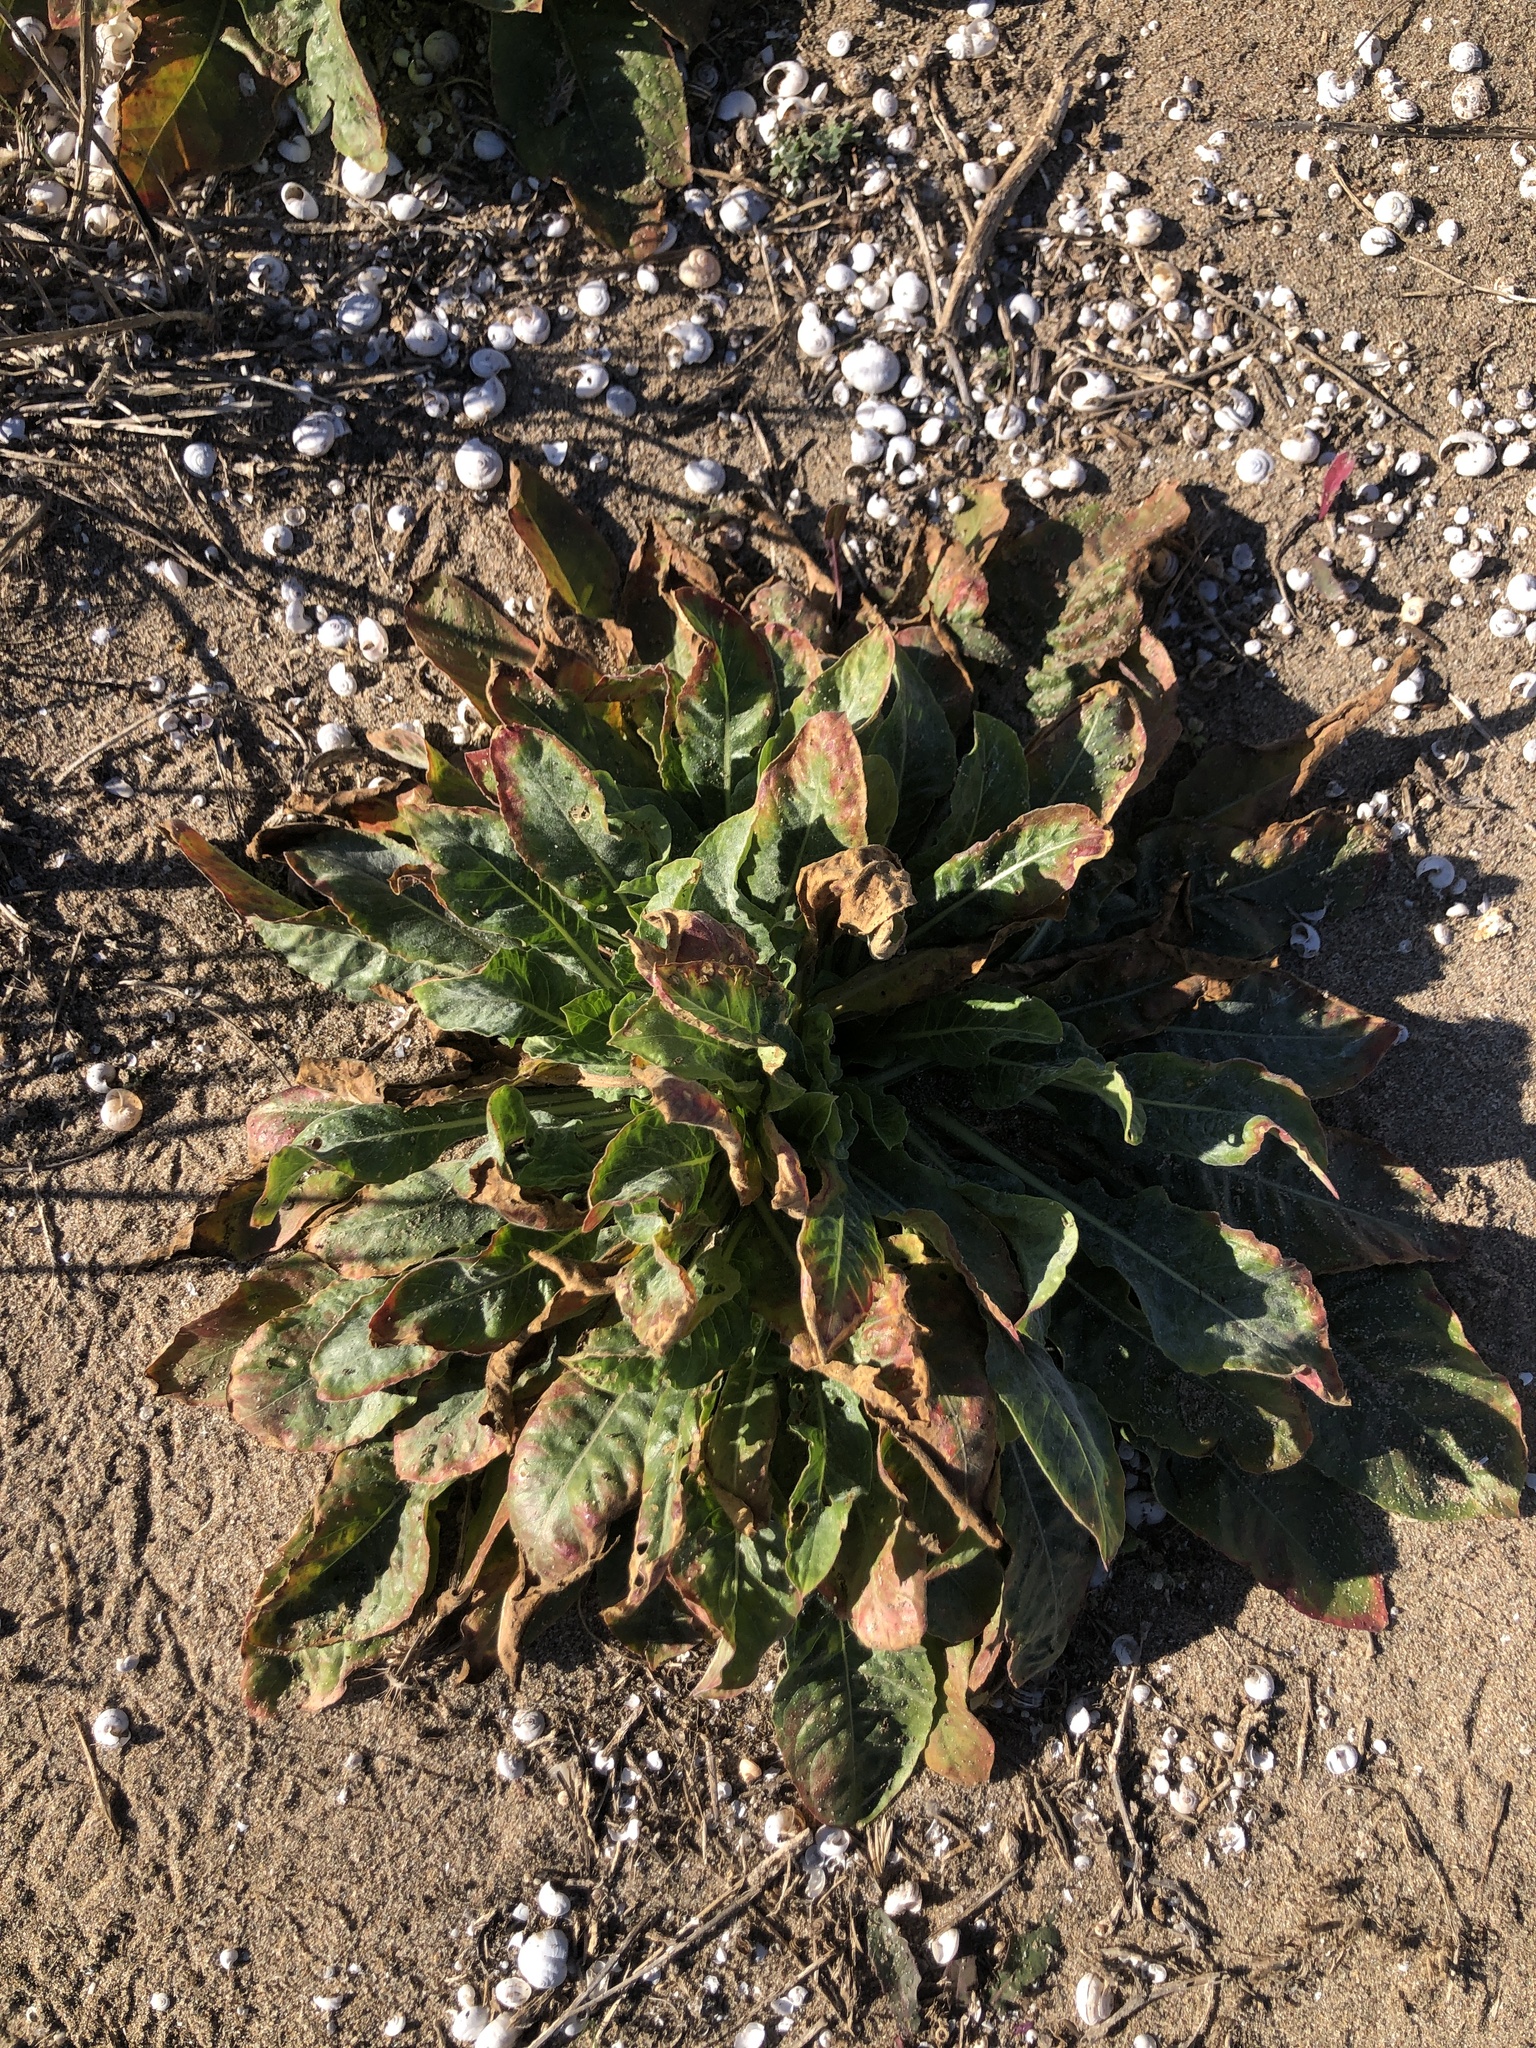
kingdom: Plantae
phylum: Tracheophyta
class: Magnoliopsida
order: Myrtales
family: Onagraceae
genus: Oenothera
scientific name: Oenothera glazioviana
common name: Large-flowered evening-primrose
